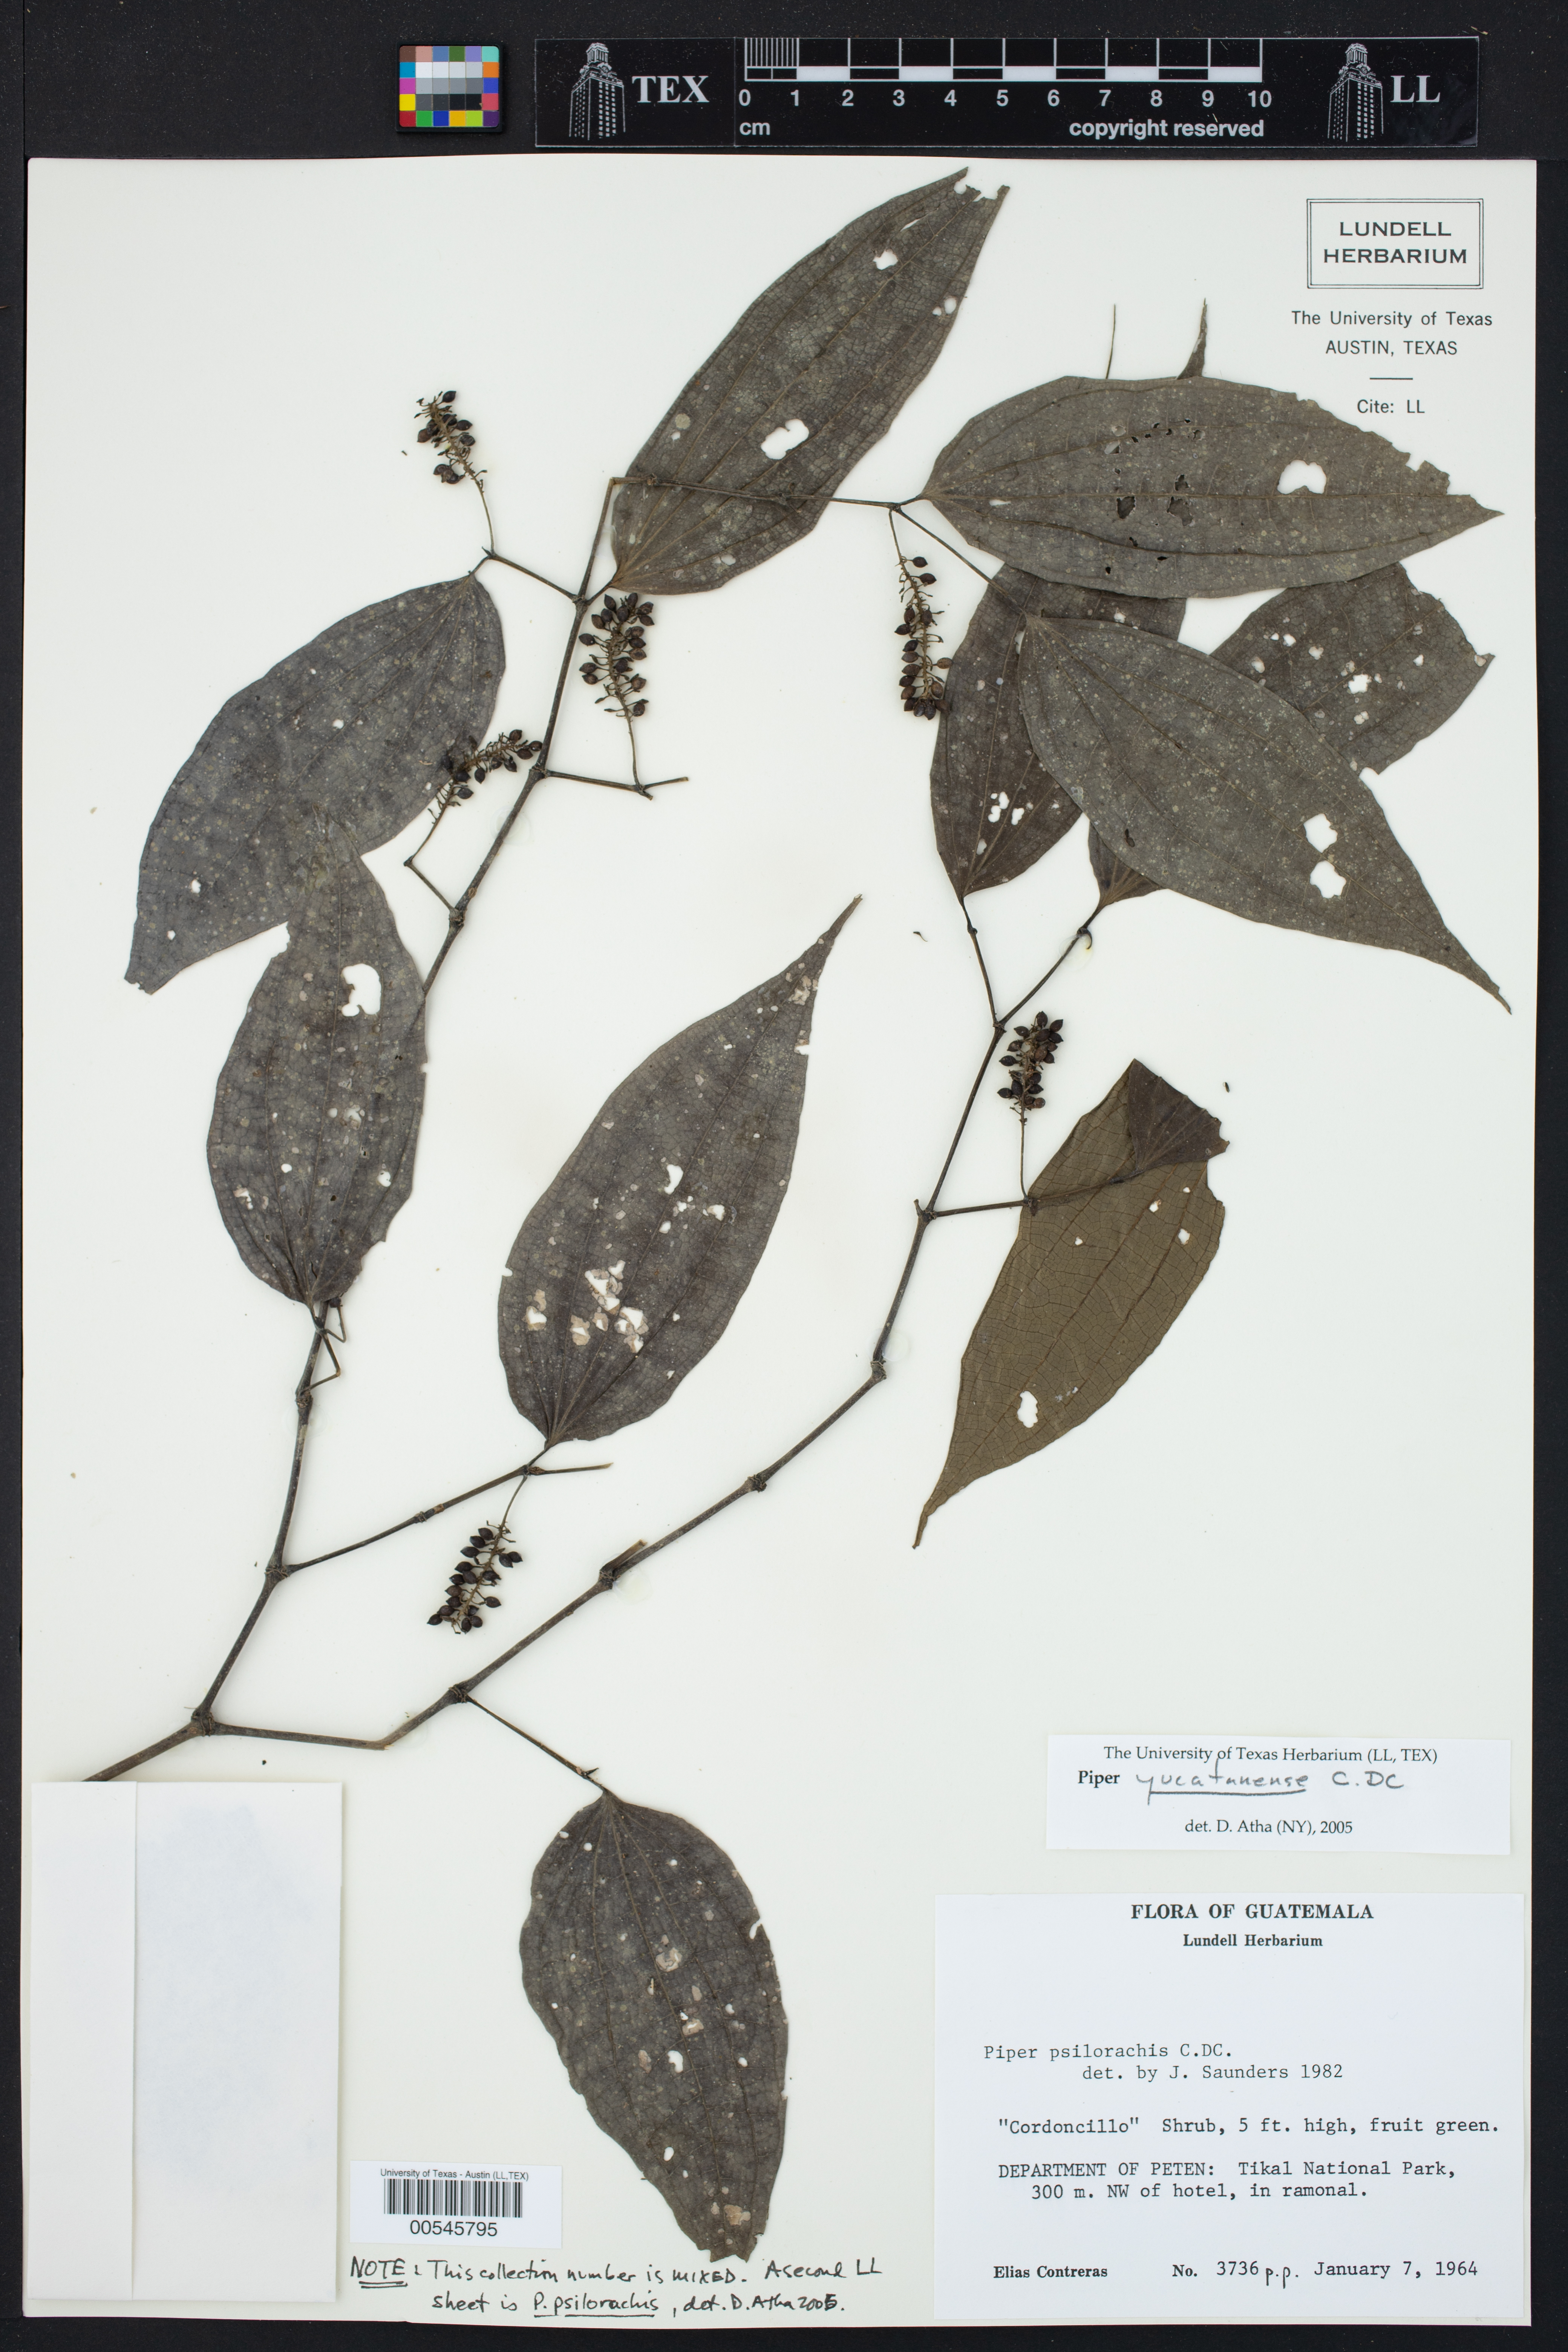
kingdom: Plantae
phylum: Tracheophyta
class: Magnoliopsida
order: Piperales
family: Piperaceae
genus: Piper
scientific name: Piper yucatanense
